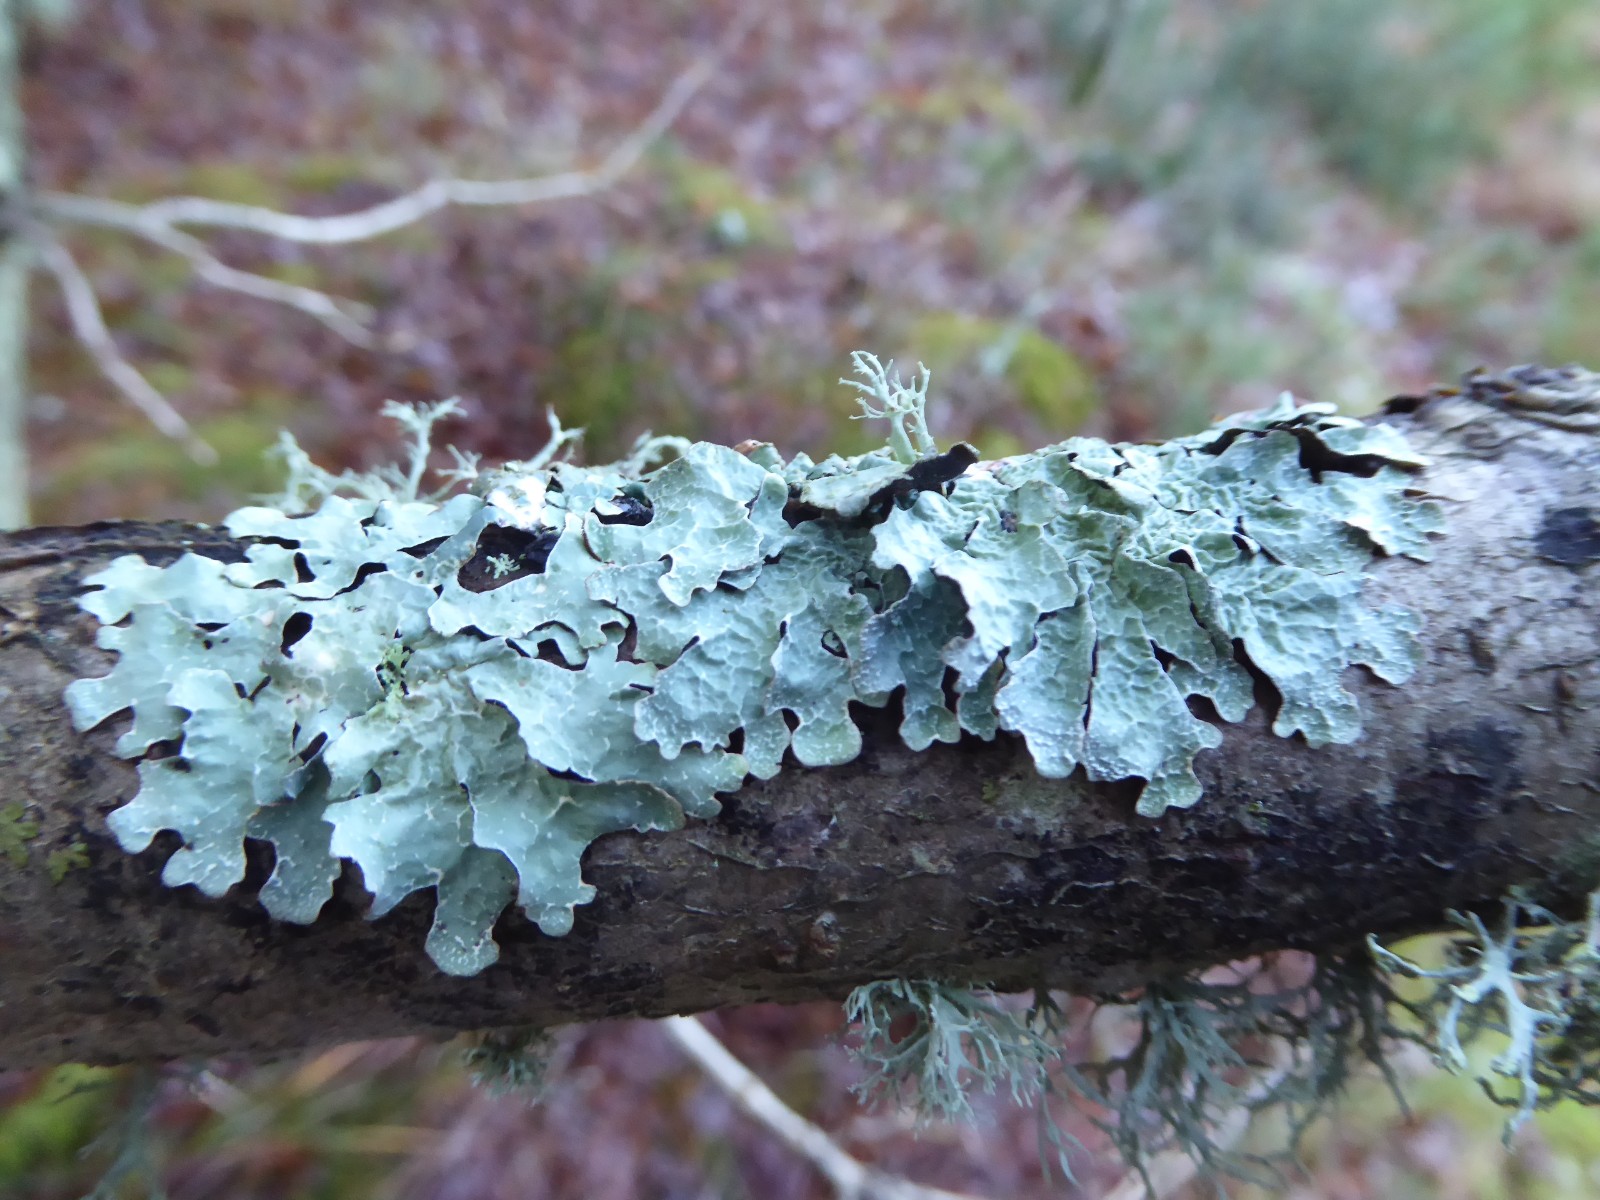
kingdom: Fungi
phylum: Ascomycota
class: Lecanoromycetes
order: Lecanorales
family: Parmeliaceae
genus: Parmelia
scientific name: Parmelia sulcata
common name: rynket skållav
